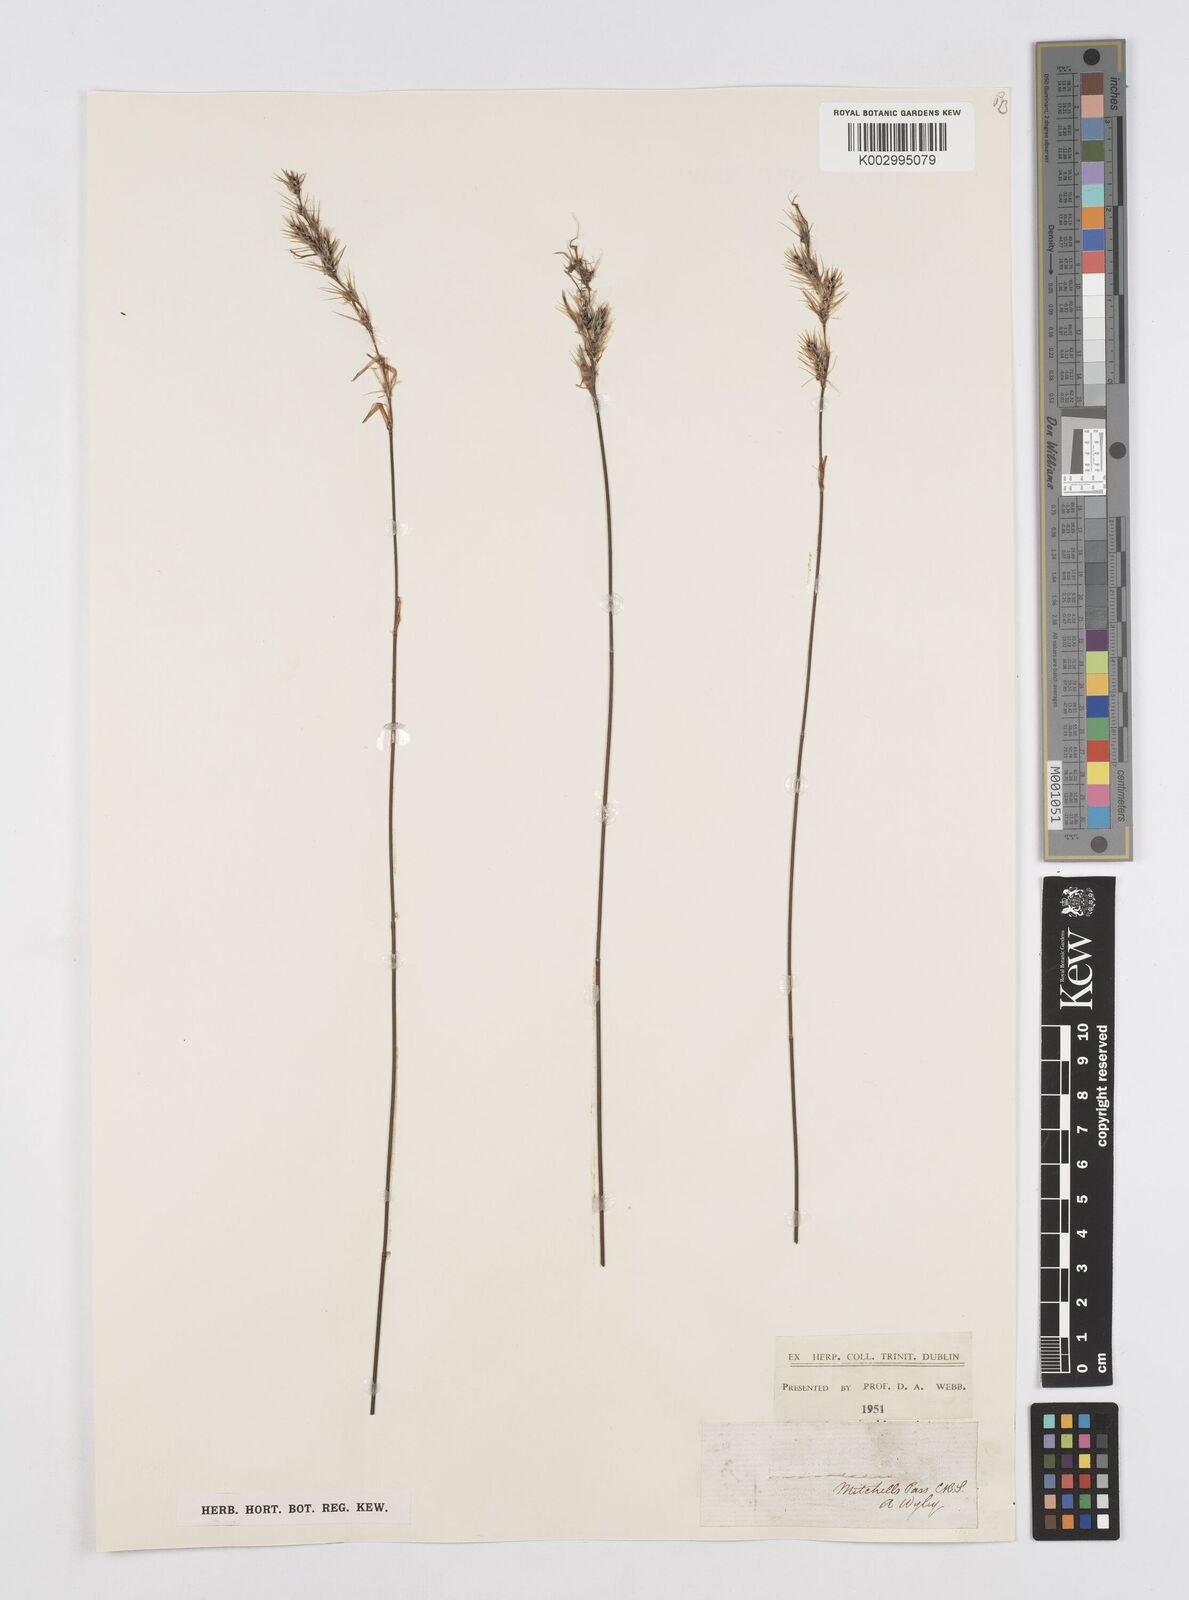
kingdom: Plantae
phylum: Tracheophyta
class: Liliopsida
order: Poales
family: Restionaceae
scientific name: Restionaceae
